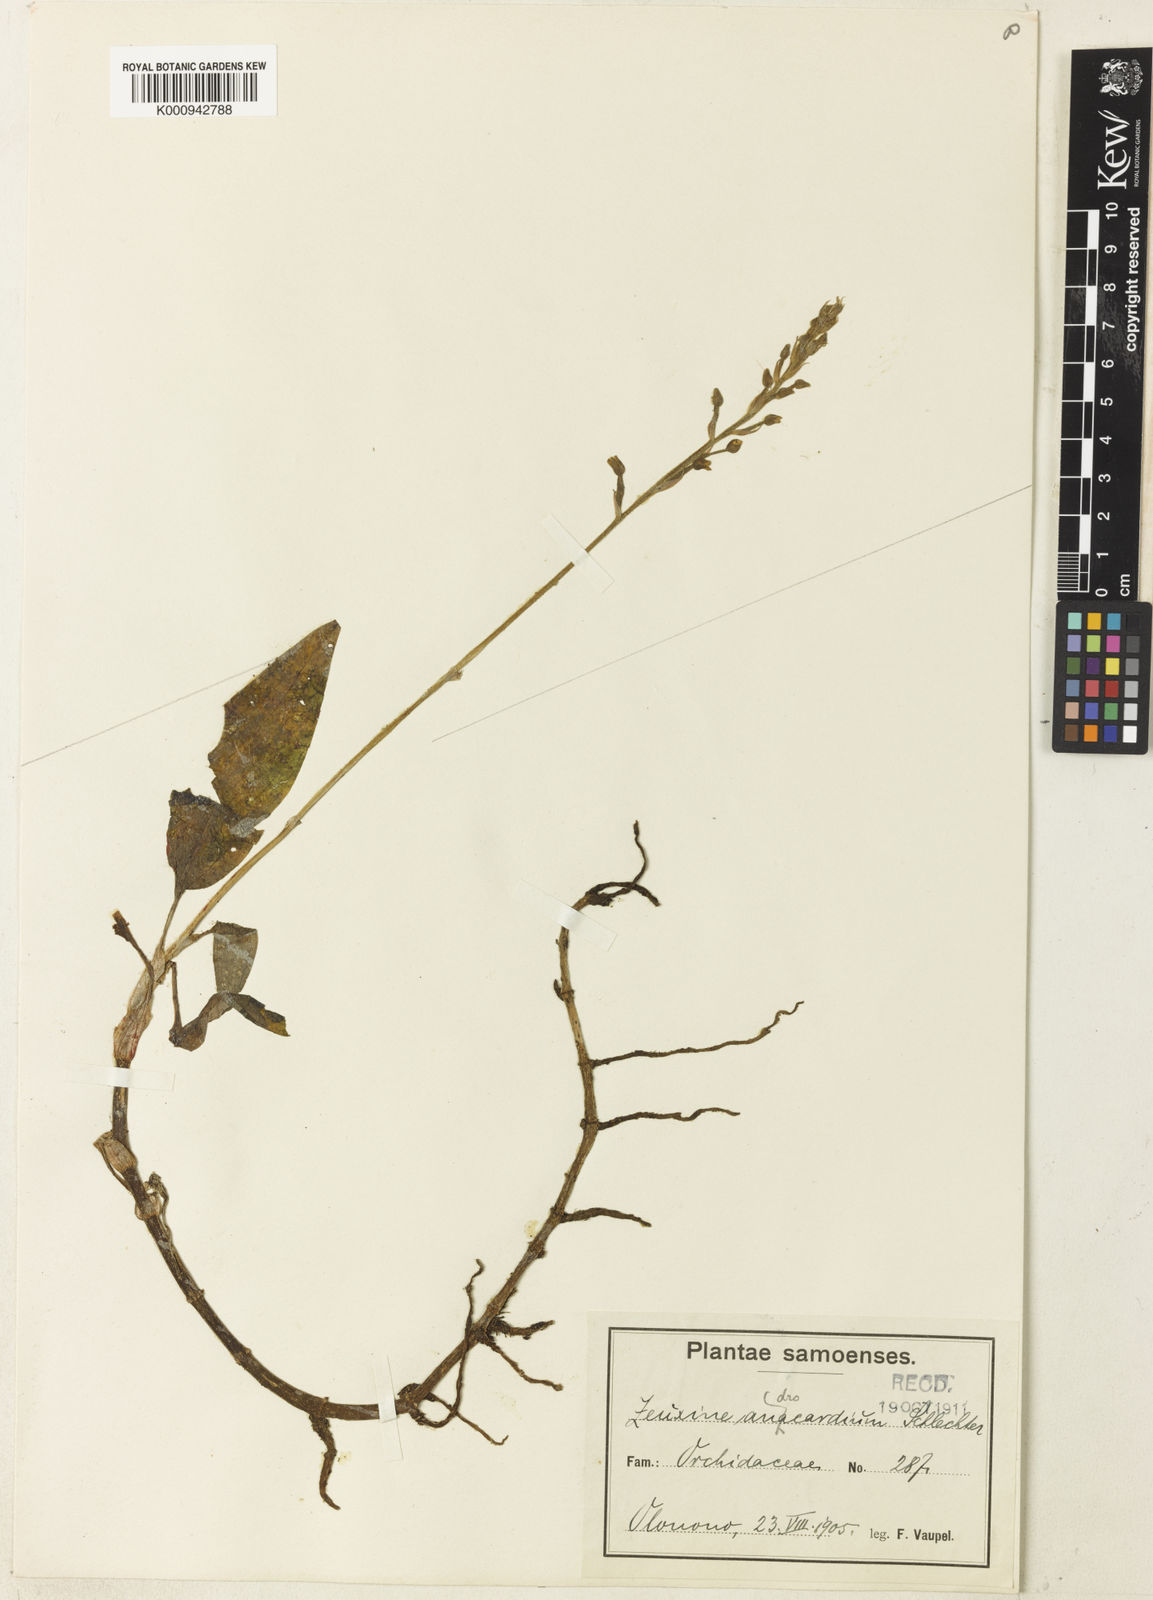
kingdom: Plantae
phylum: Tracheophyta
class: Liliopsida
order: Asparagales
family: Orchidaceae
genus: Zeuxine
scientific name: Zeuxine plantaginea
